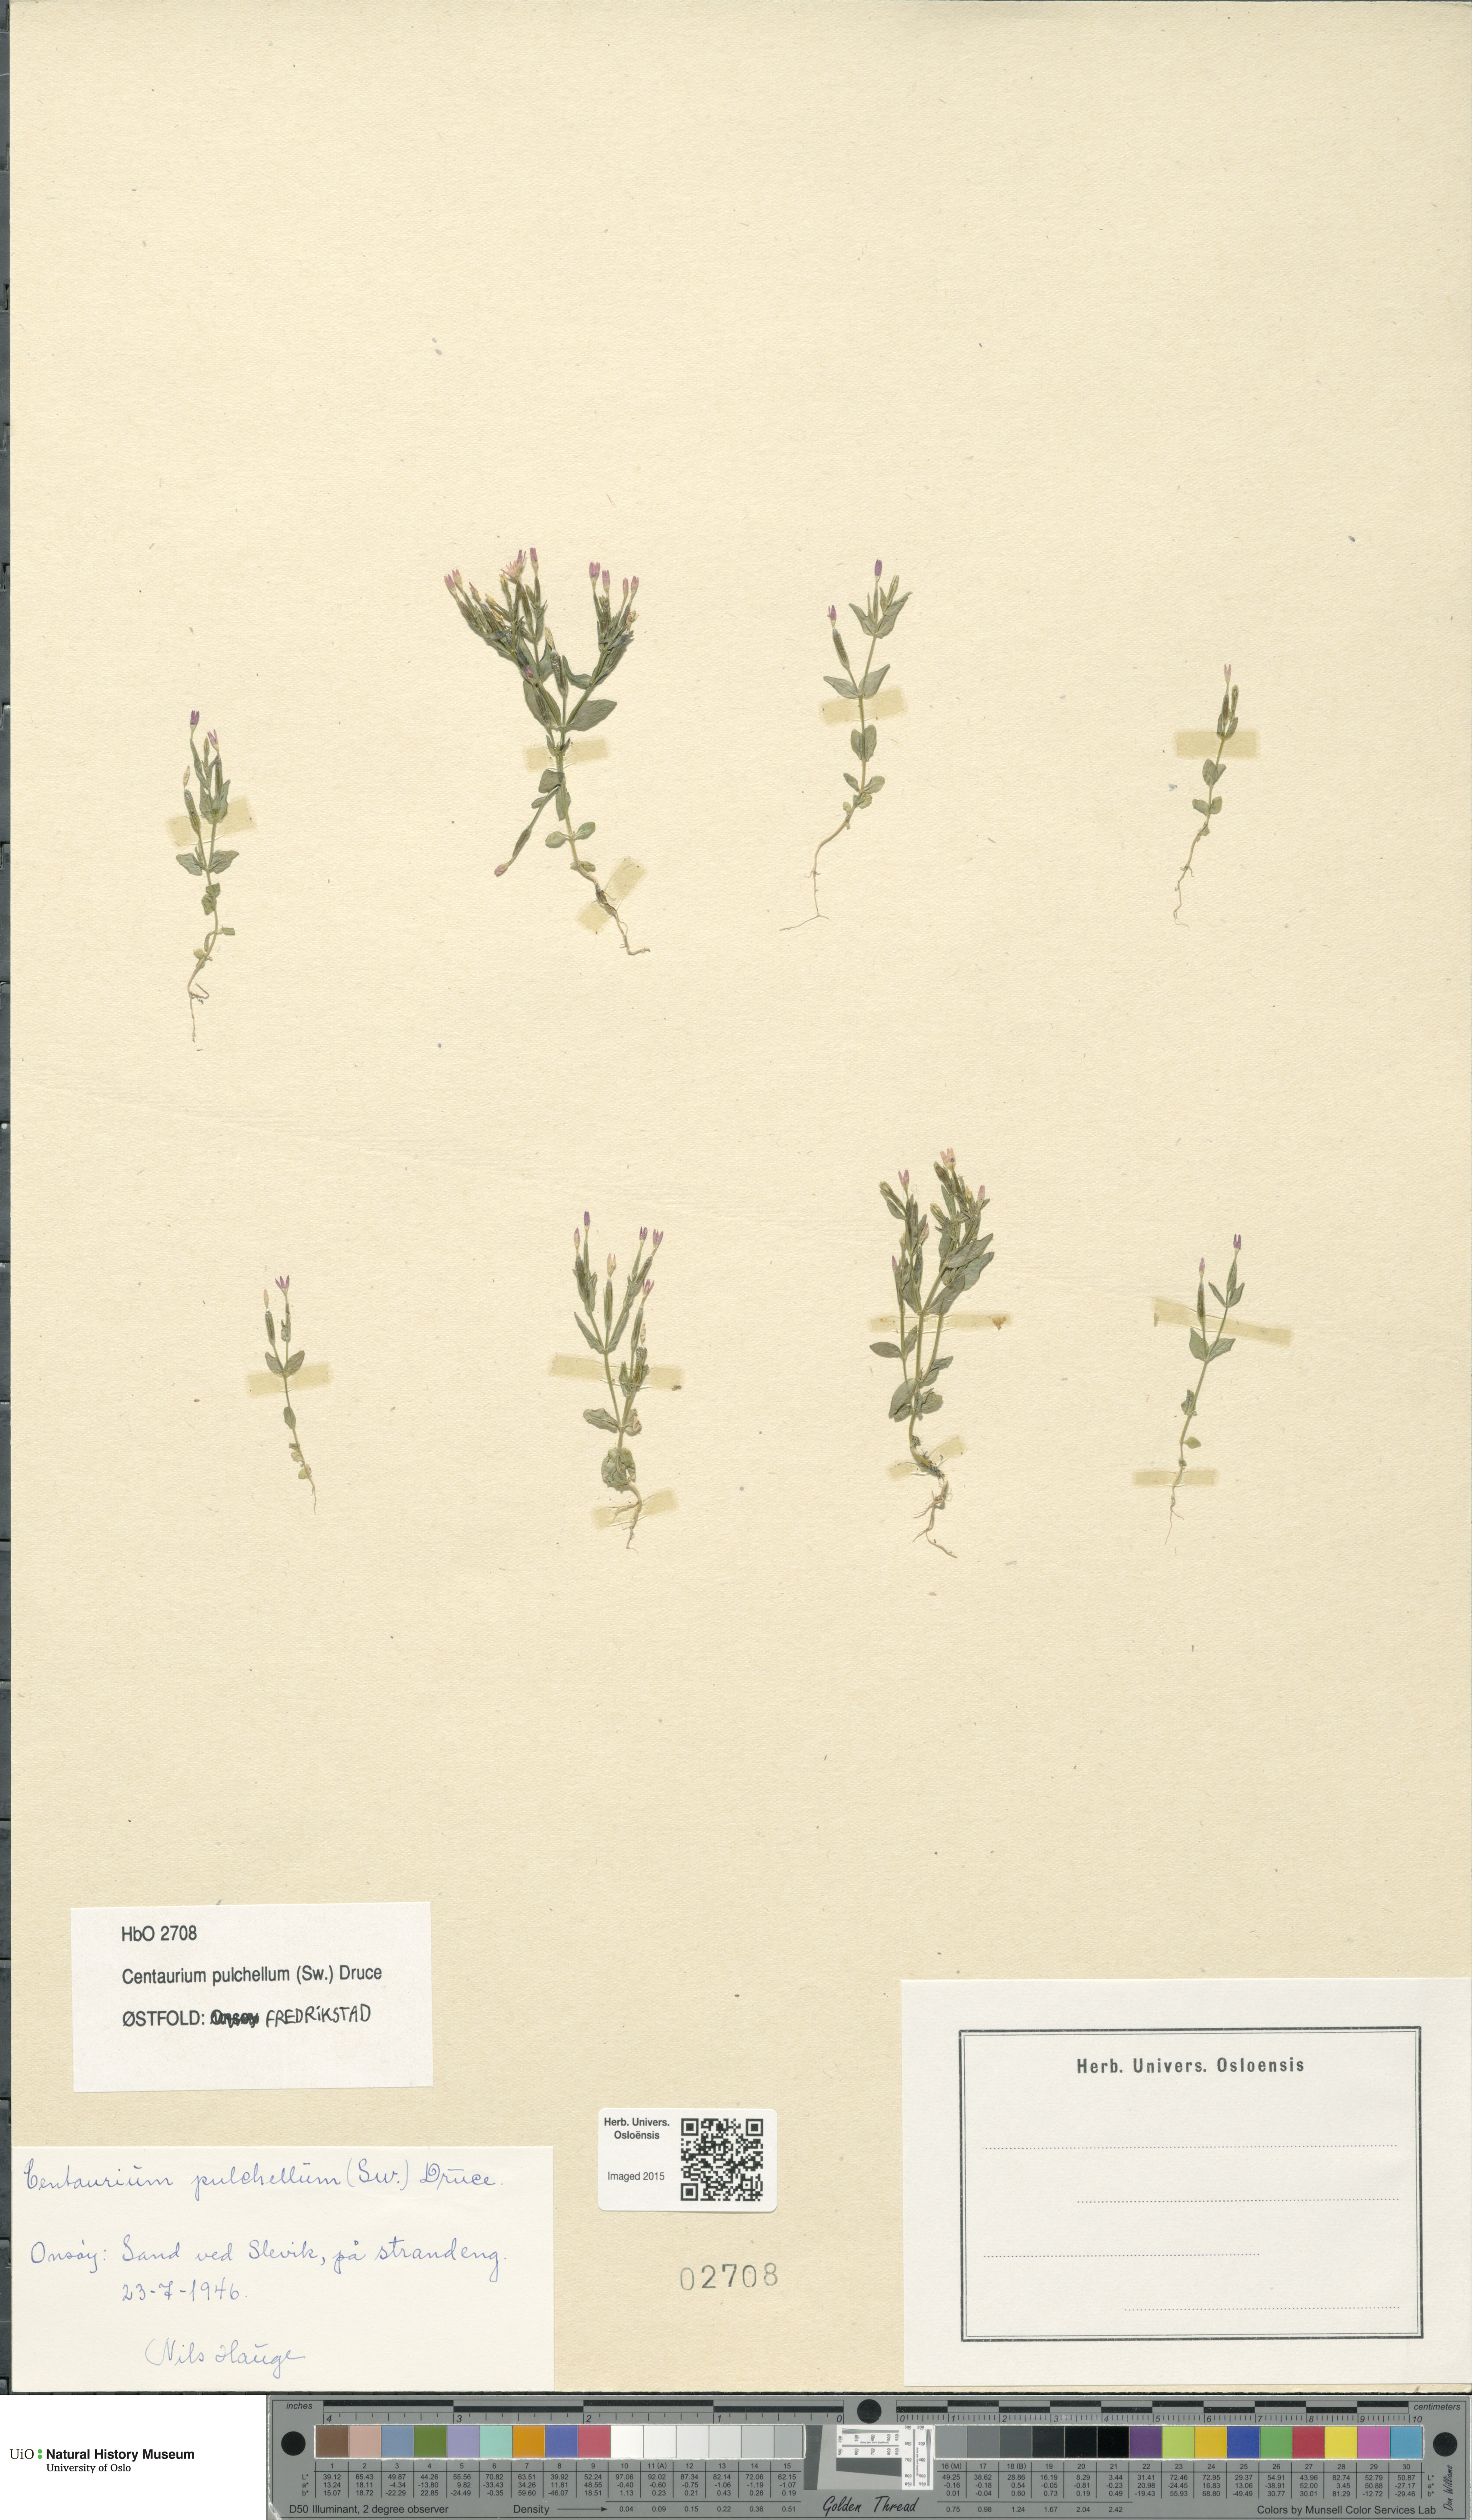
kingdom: Plantae
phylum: Tracheophyta
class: Magnoliopsida
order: Gentianales
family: Gentianaceae
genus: Centaurium
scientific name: Centaurium pulchellum
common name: Lesser centaury
